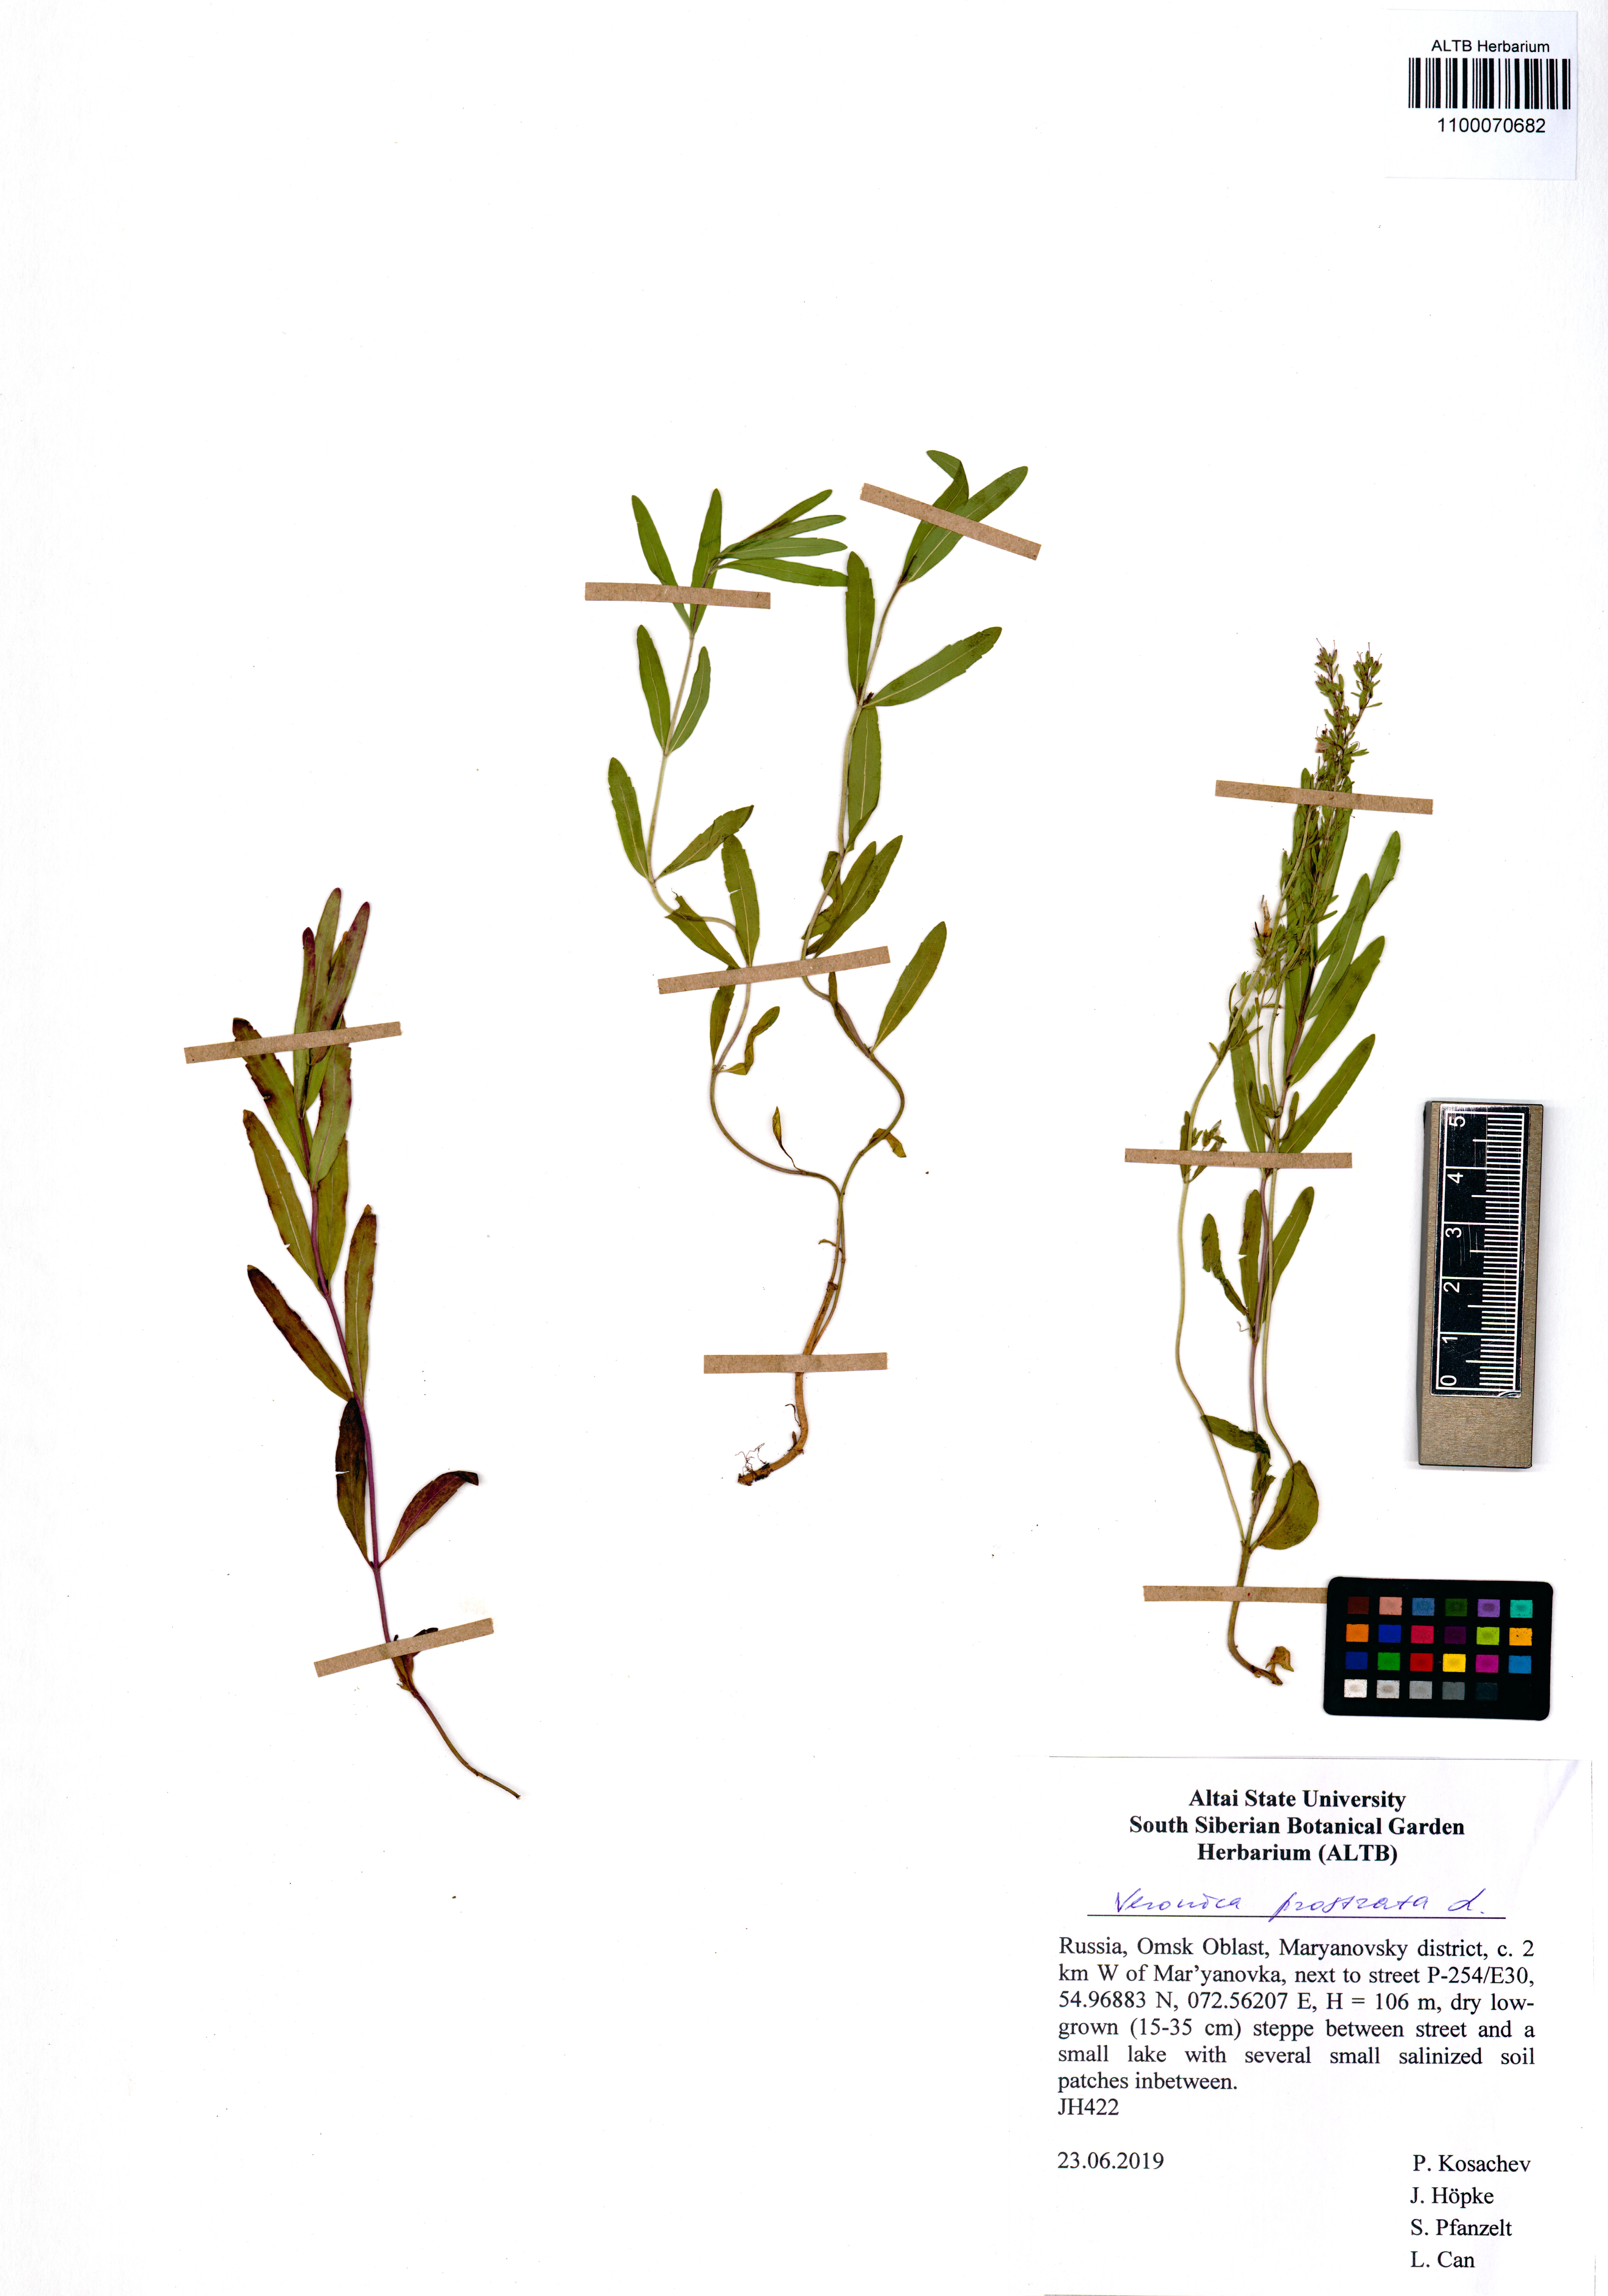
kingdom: Plantae
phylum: Tracheophyta
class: Magnoliopsida
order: Lamiales
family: Plantaginaceae
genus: Veronica
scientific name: Veronica prostrata
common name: Prostrate speedwell
